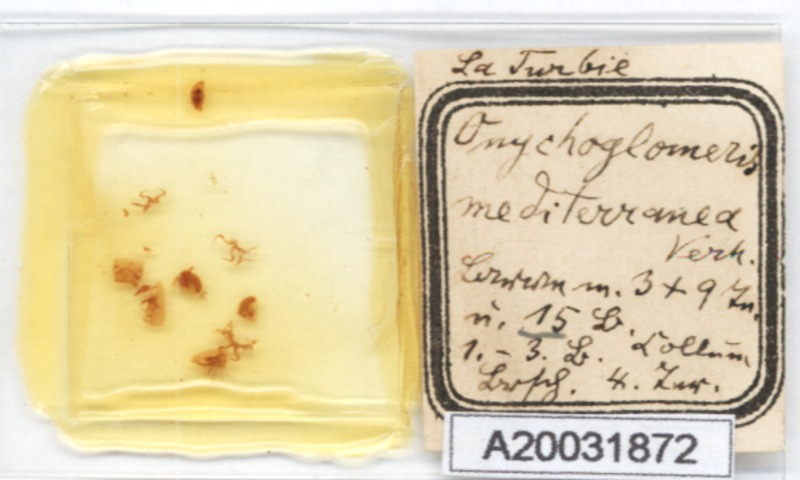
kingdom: Animalia
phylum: Arthropoda
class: Diplopoda
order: Glomerida
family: Glomeridae
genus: Onychoglomeris
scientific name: Onychoglomeris castanea
